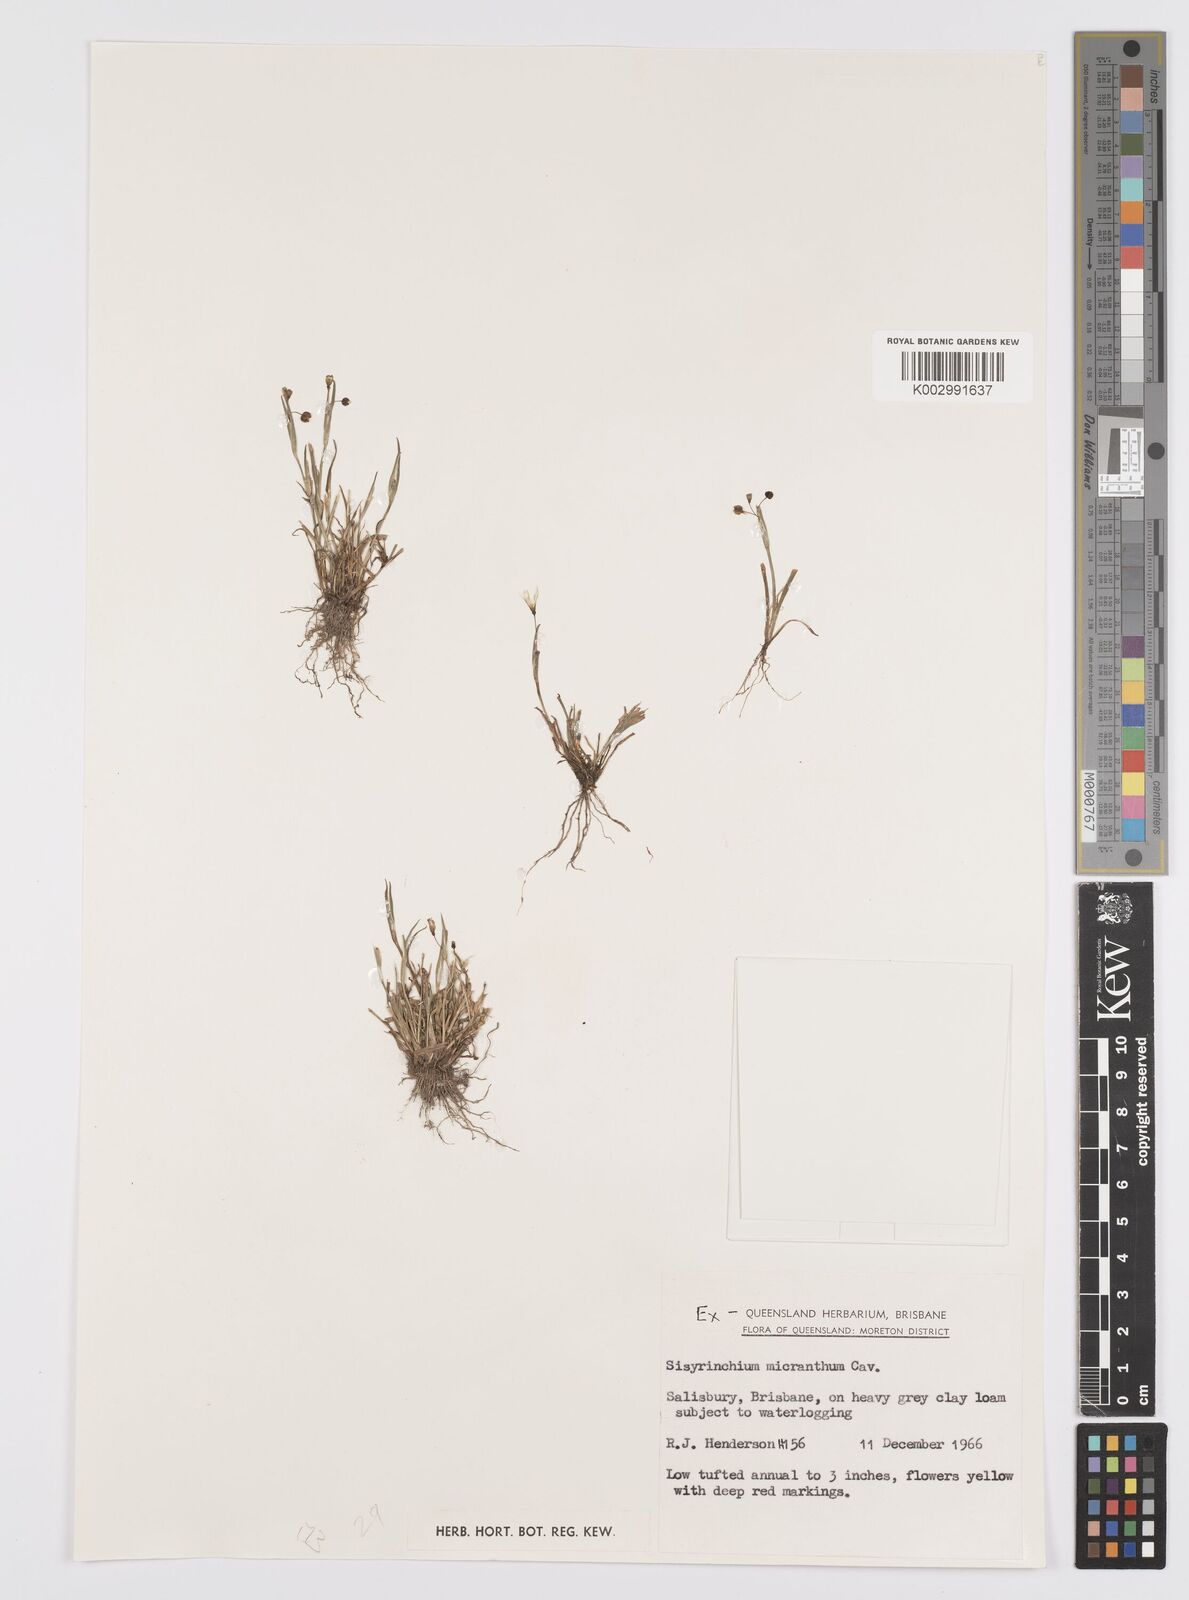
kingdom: Plantae
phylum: Tracheophyta
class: Liliopsida
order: Asparagales
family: Iridaceae
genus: Sisyrinchium
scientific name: Sisyrinchium micranthum
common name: Bermuda pigroot
